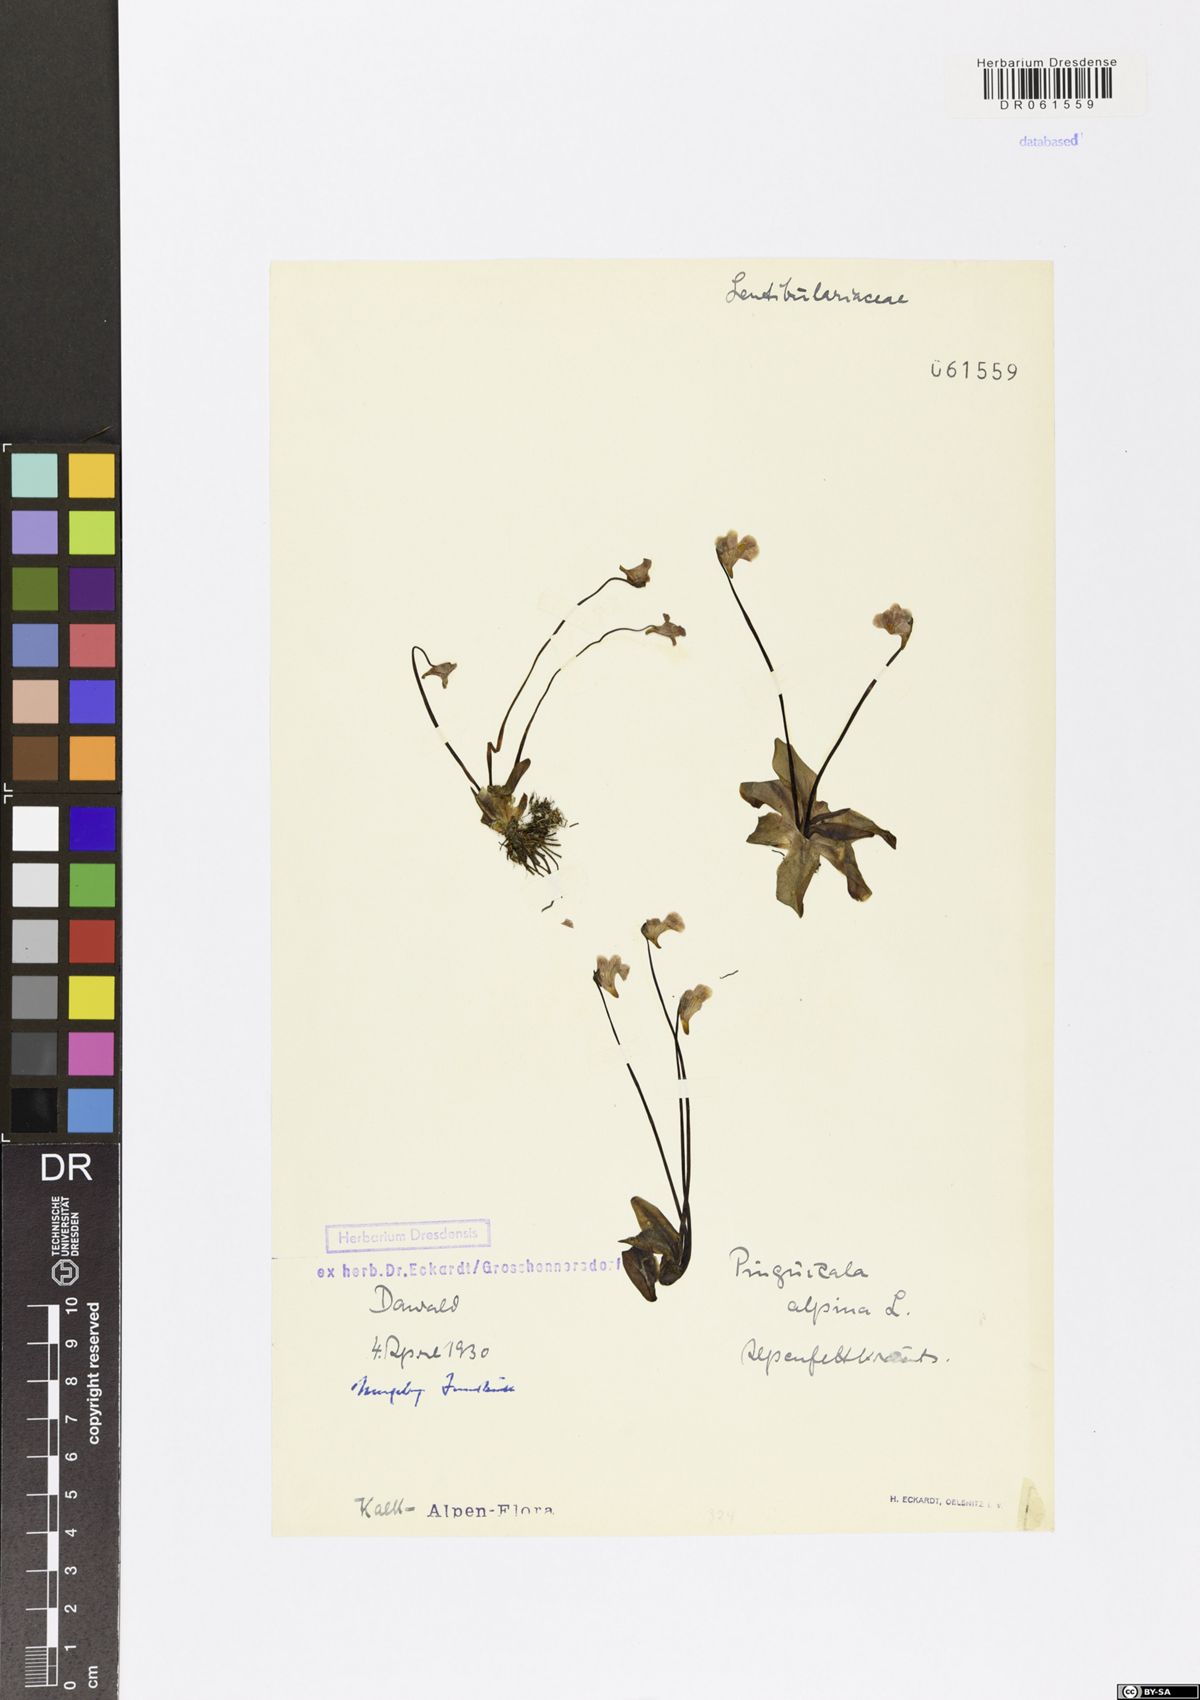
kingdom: Plantae
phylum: Tracheophyta
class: Magnoliopsida
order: Lamiales
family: Lentibulariaceae
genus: Pinguicula
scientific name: Pinguicula alpina
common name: Alpine butterwort
